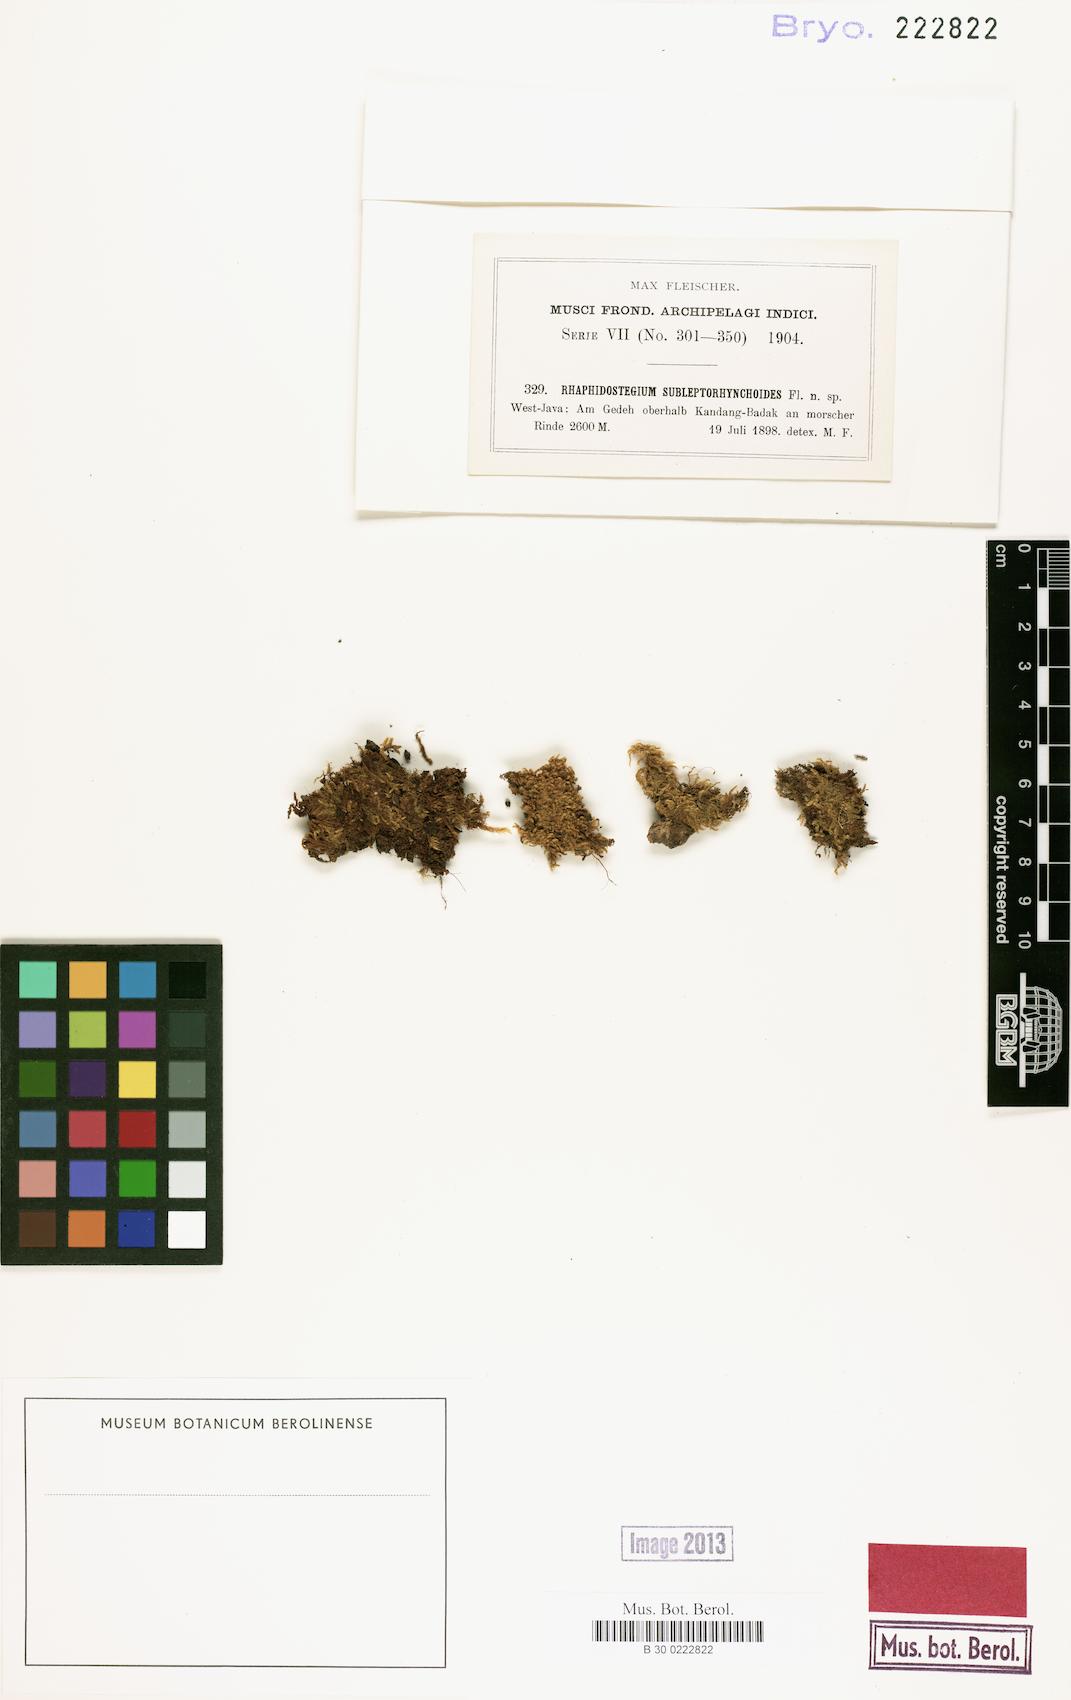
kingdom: Plantae
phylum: Bryophyta
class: Bryopsida
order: Hypnales
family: Sematophyllaceae
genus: Sematophyllum
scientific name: Sematophyllum
